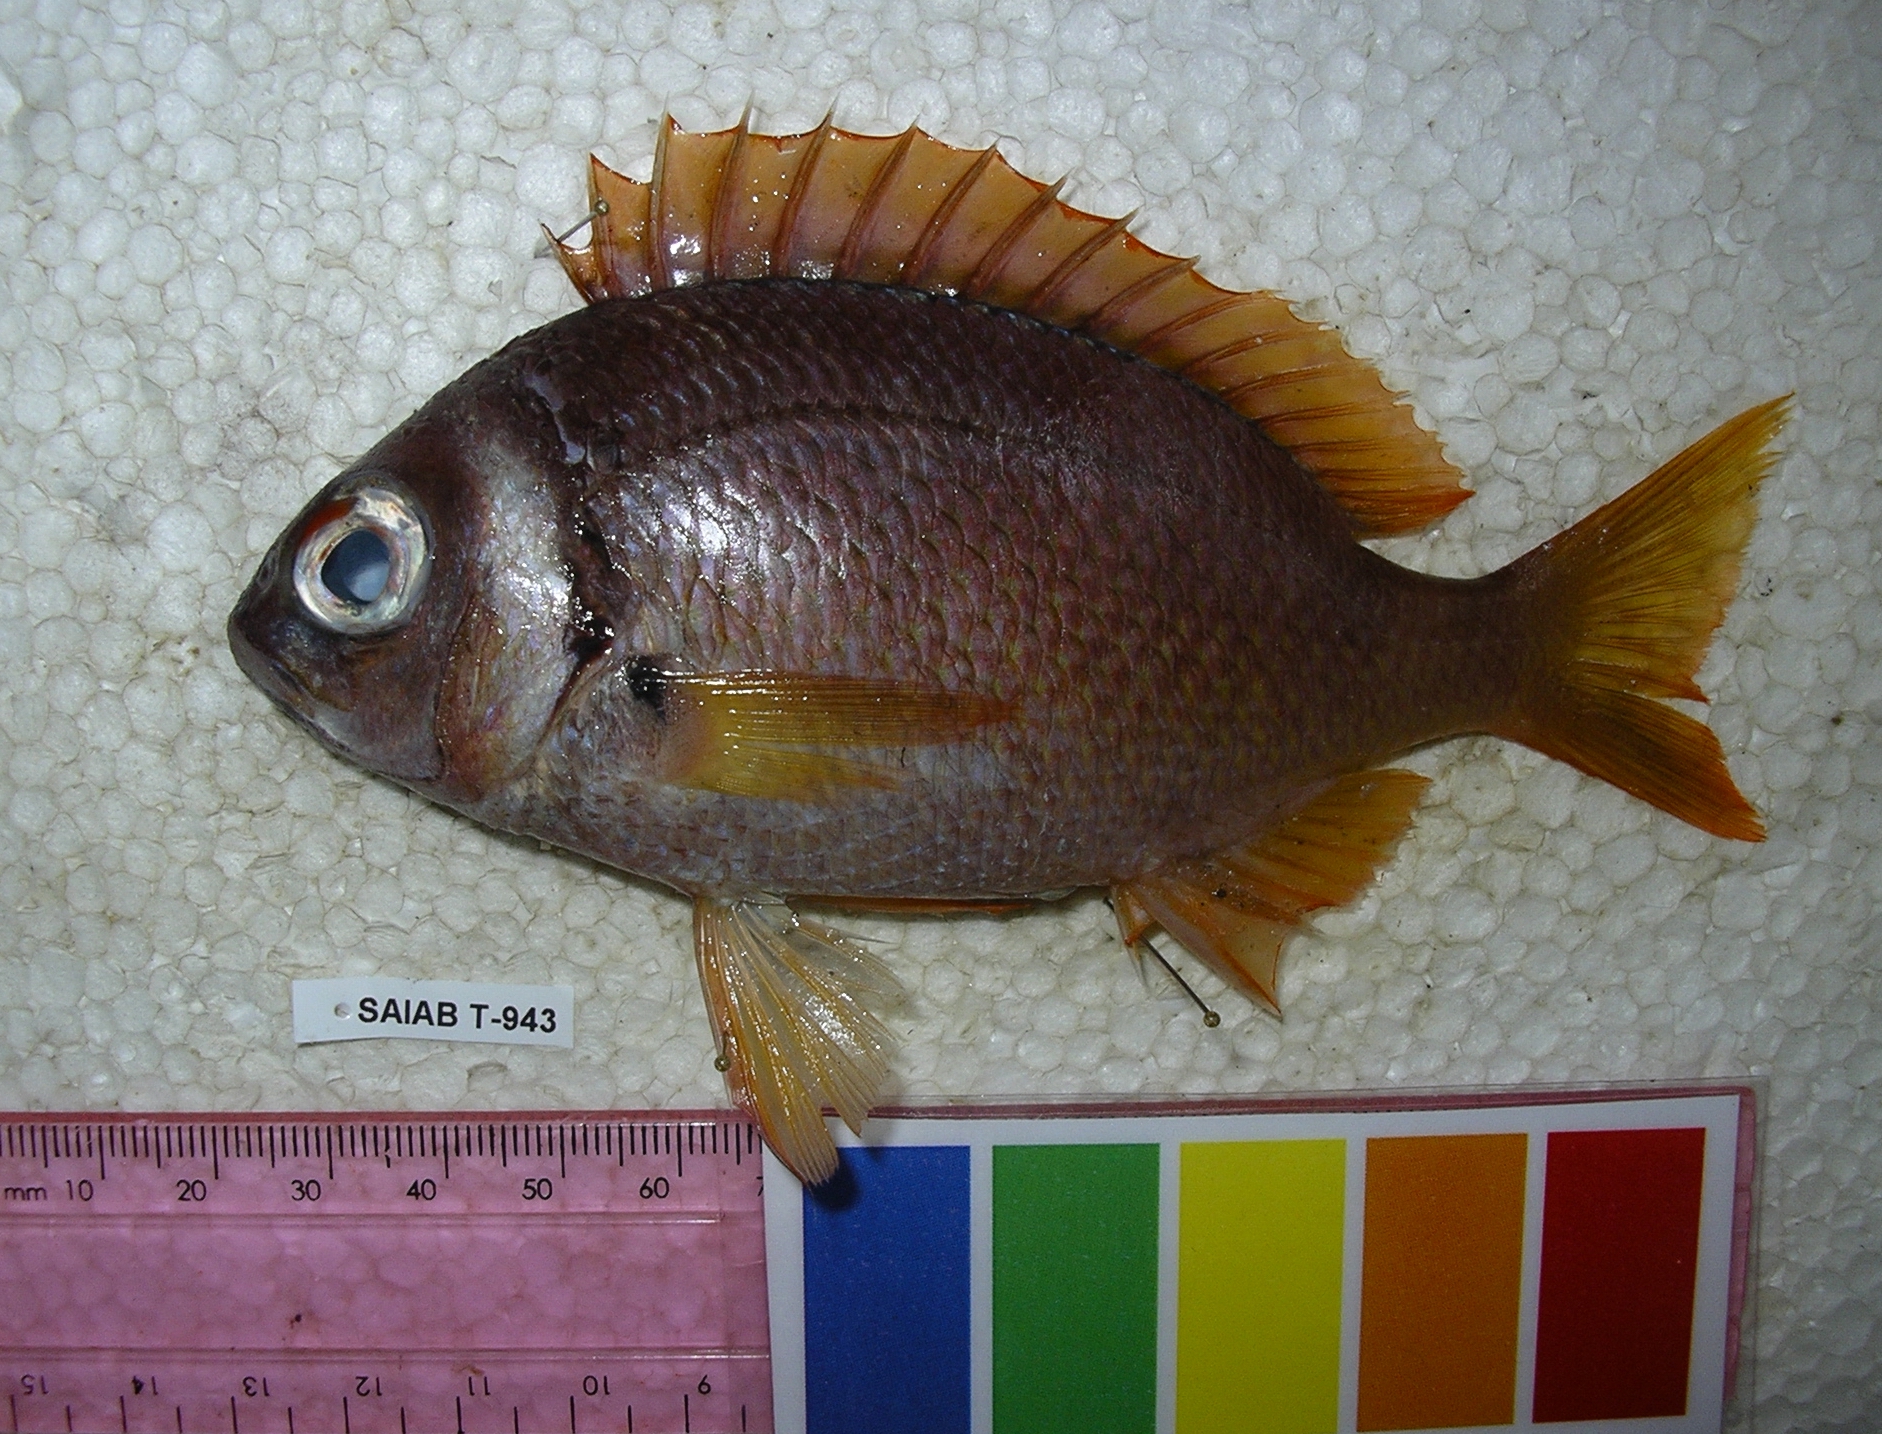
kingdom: Animalia
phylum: Chordata
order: Perciformes
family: Nemipteridae
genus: Scolopsis
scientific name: Scolopsis vosmeri
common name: Whitecheek monocle bream
